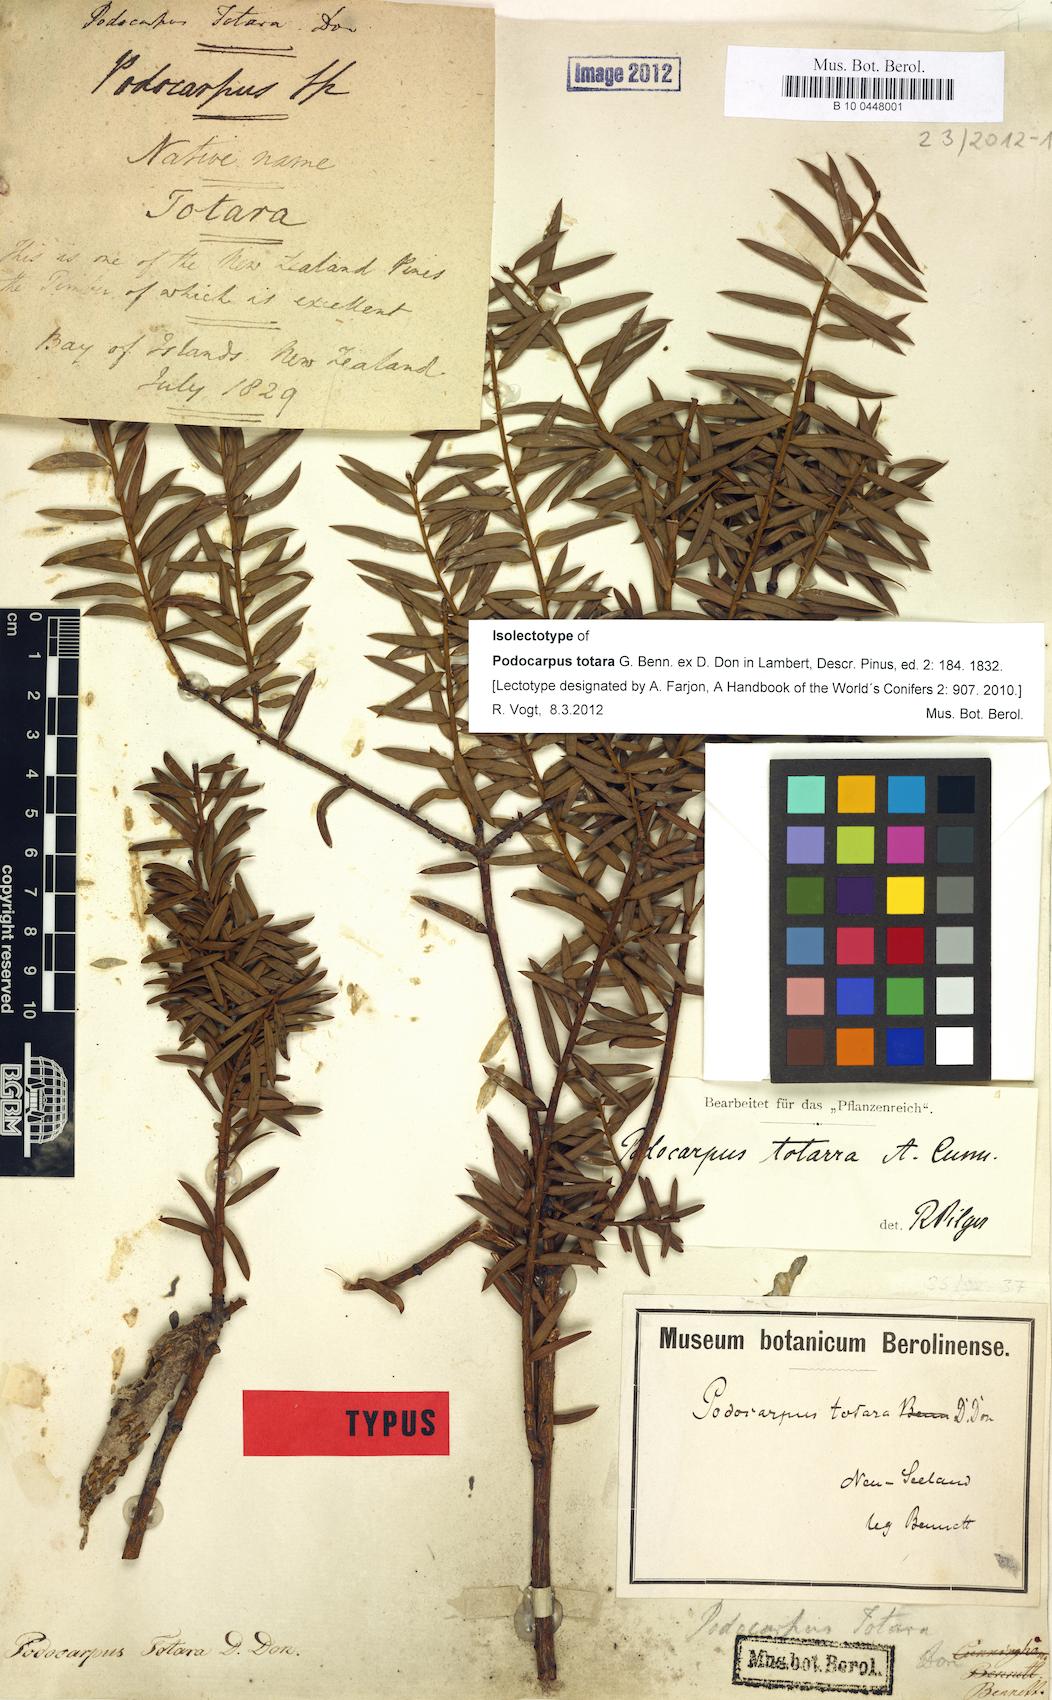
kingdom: Plantae
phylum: Tracheophyta
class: Pinopsida
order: Pinales
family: Podocarpaceae
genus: Podocarpus
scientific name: Podocarpus totara
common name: Totara
